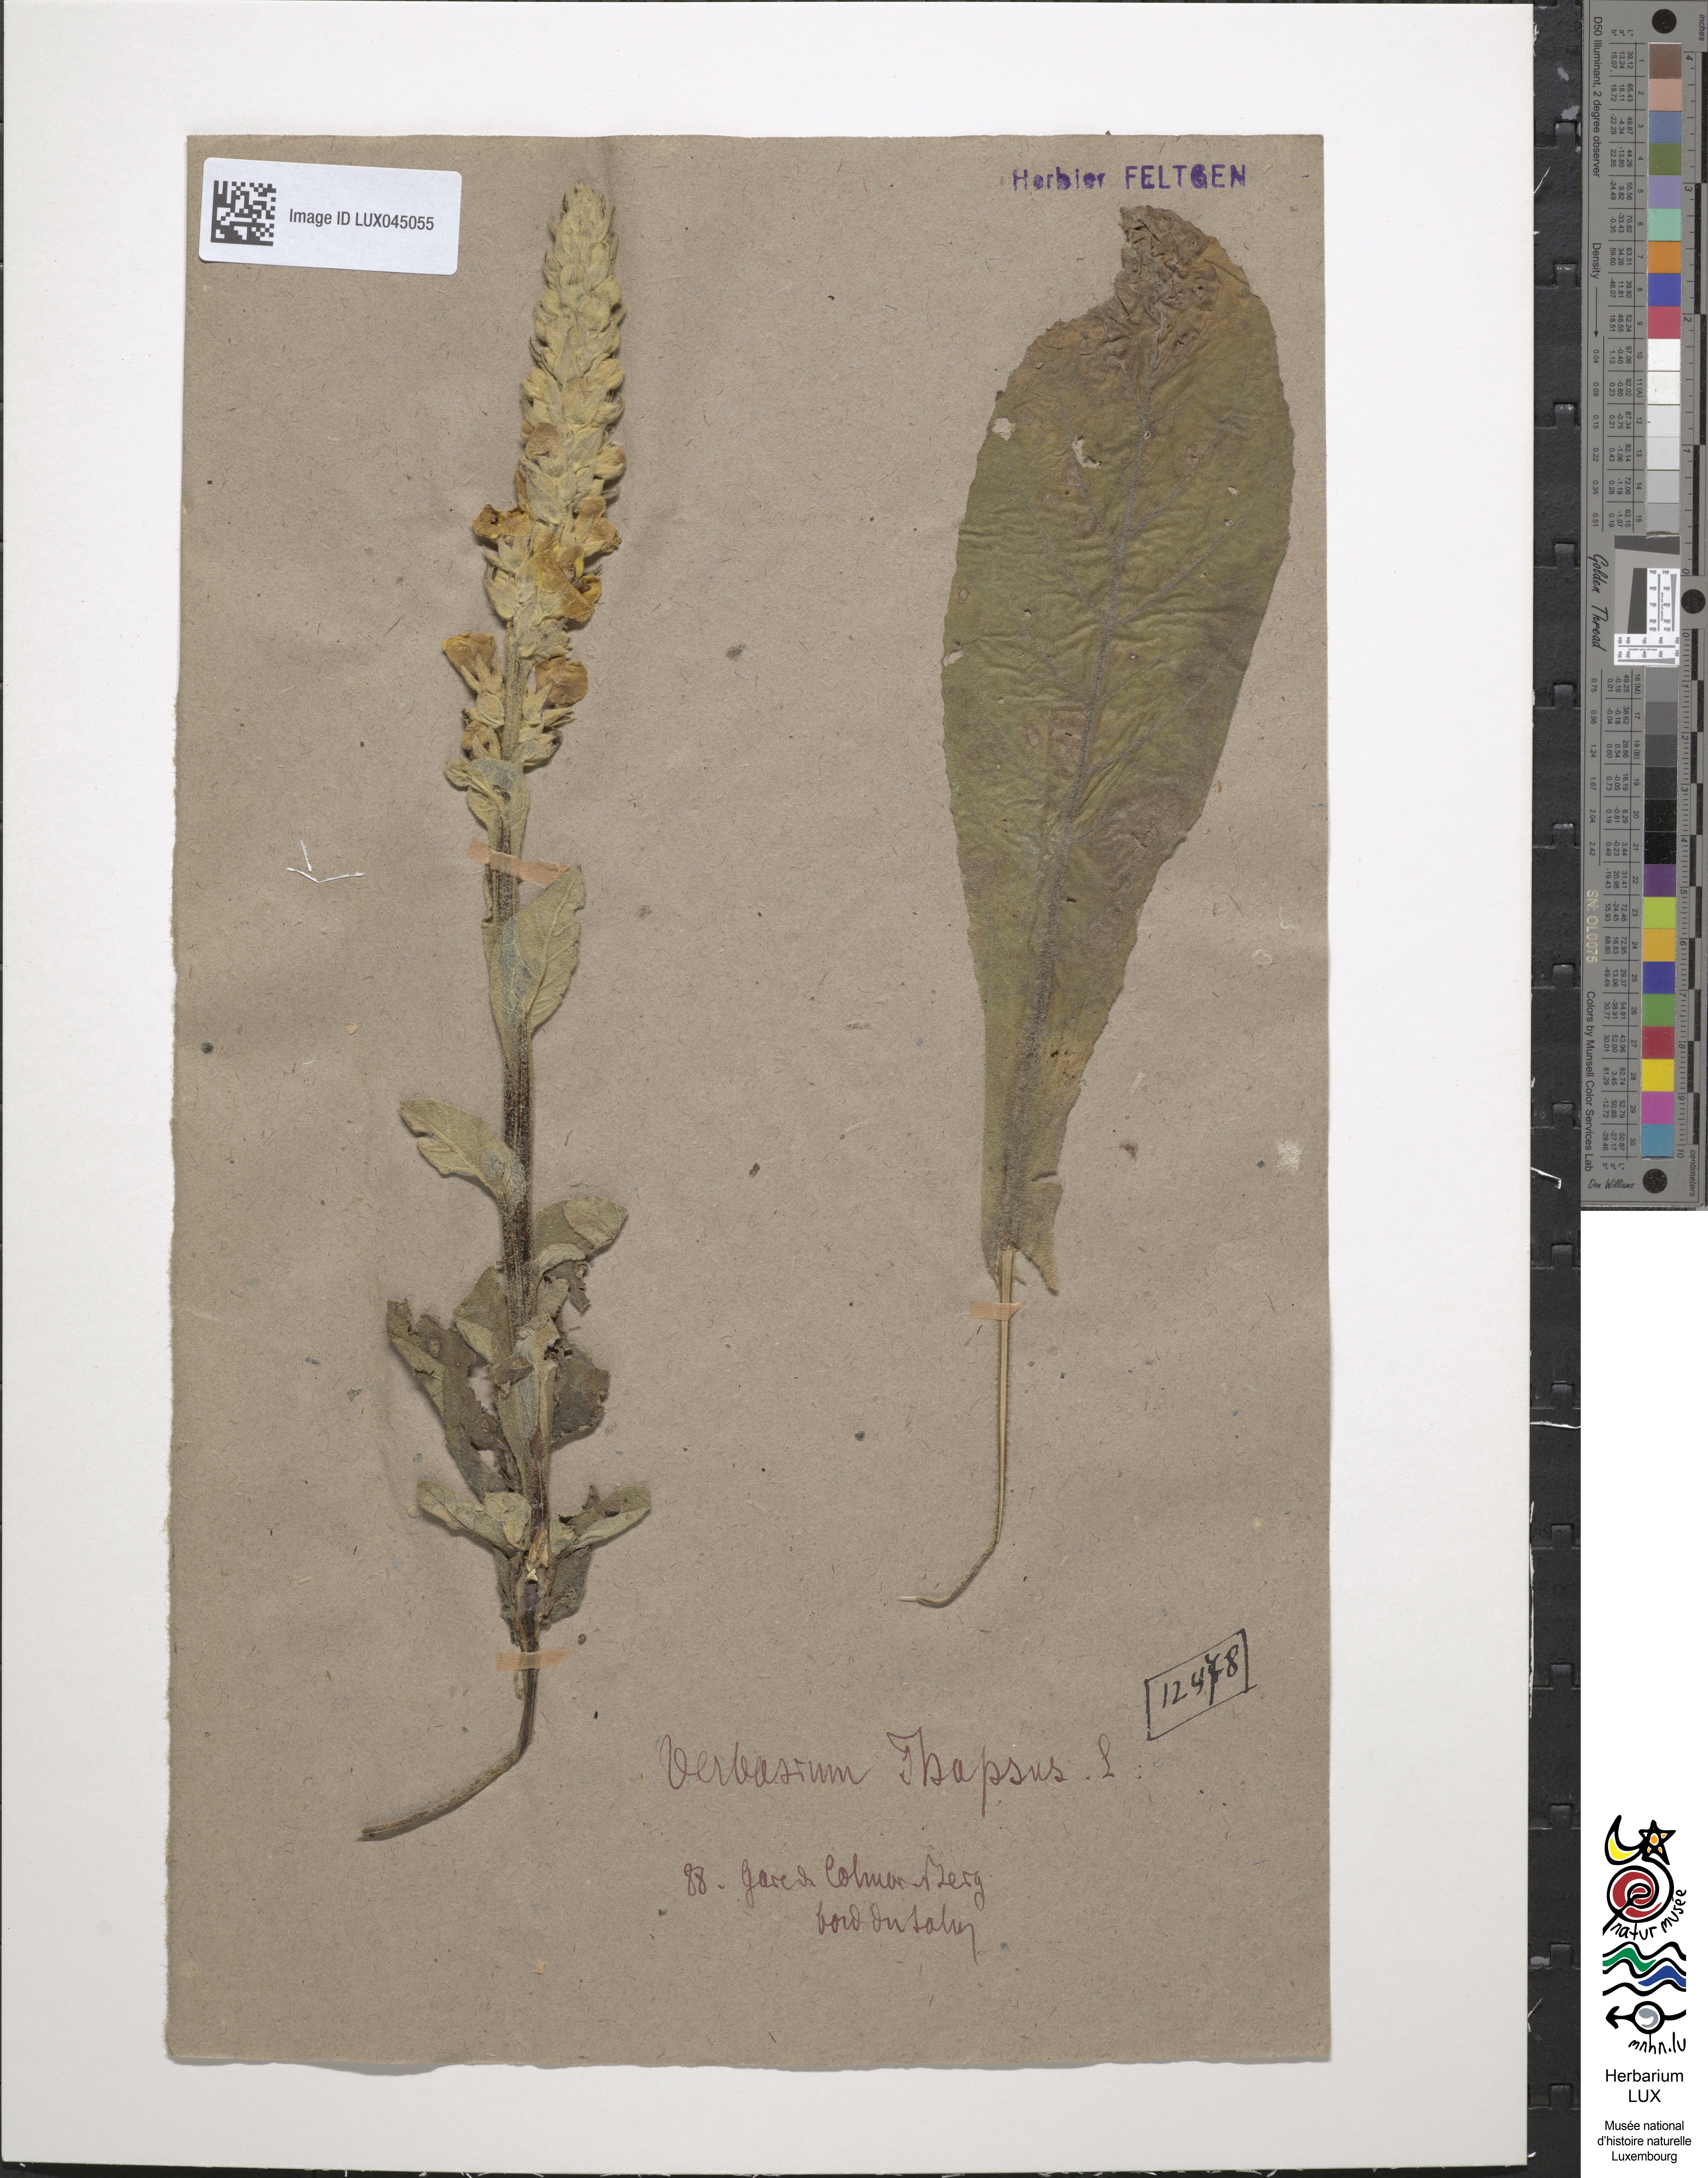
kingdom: Plantae
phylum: Tracheophyta
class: Magnoliopsida
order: Lamiales
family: Scrophulariaceae
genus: Verbascum
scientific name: Verbascum thapsus
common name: Common mullein
